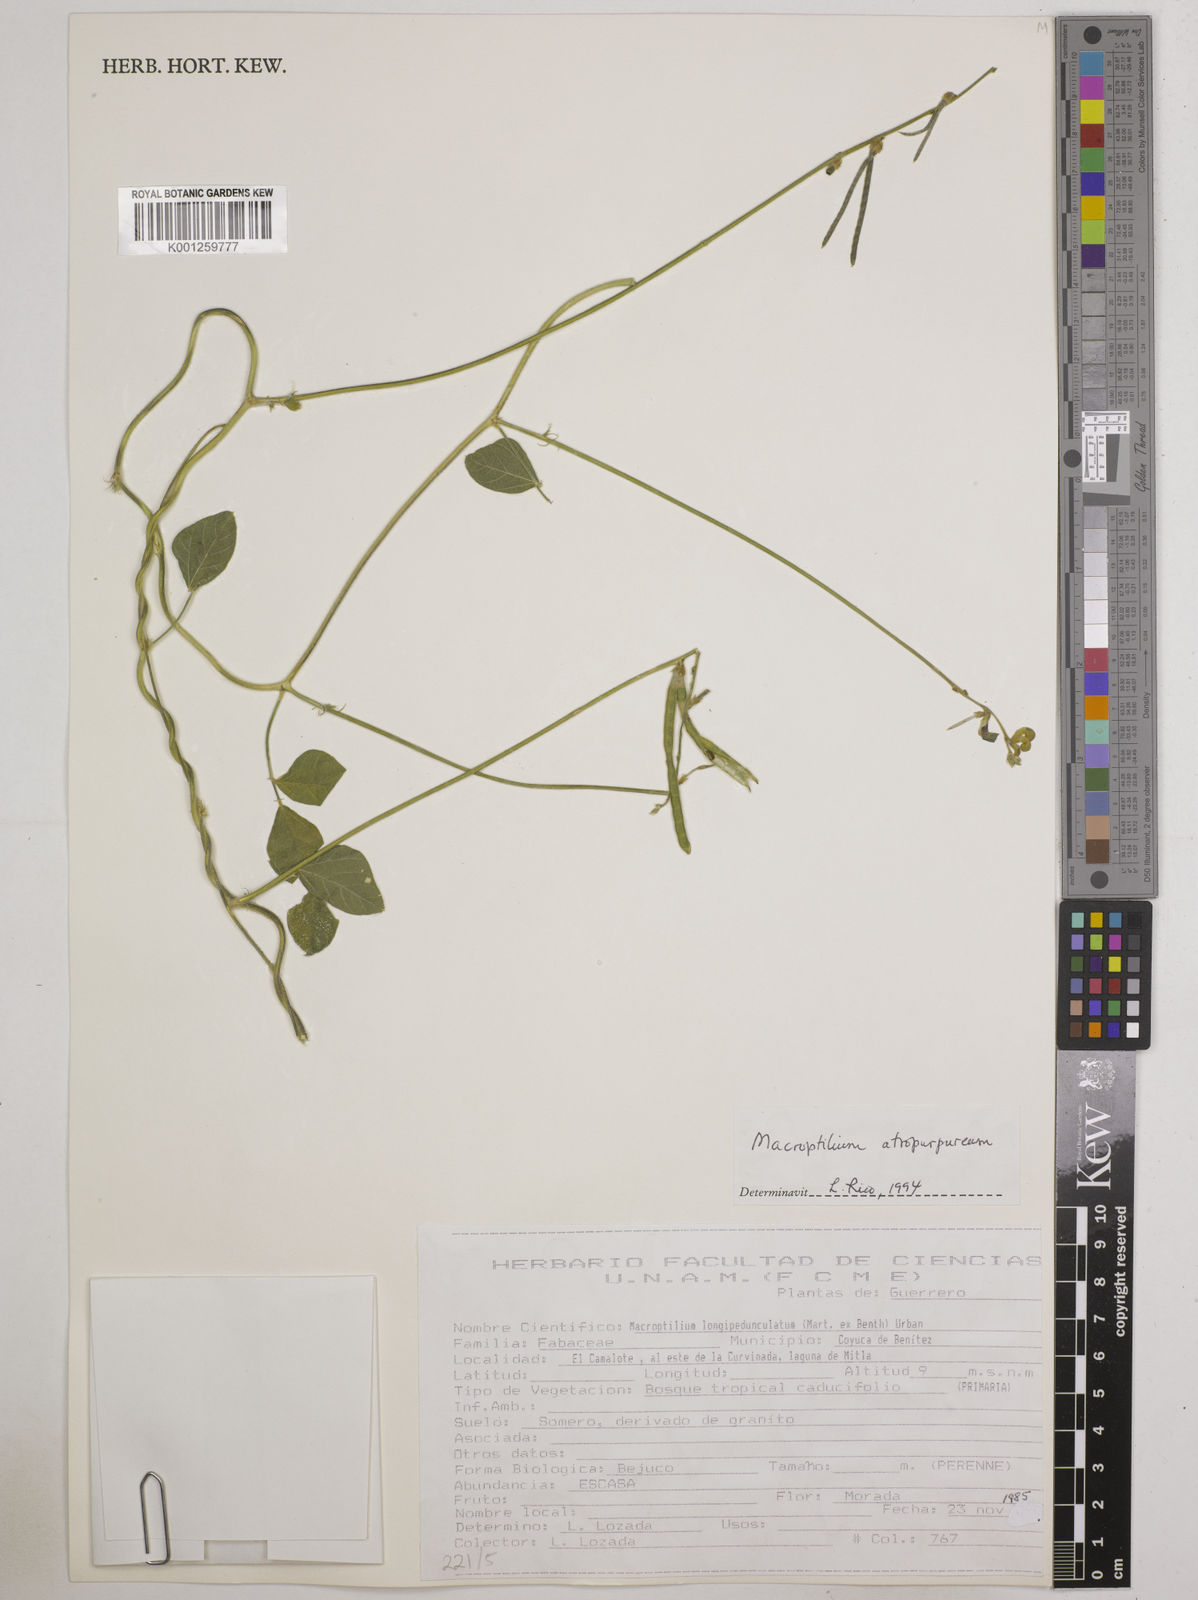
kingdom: Plantae
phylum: Tracheophyta
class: Magnoliopsida
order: Fabales
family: Fabaceae
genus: Macroptilium
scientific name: Macroptilium atropurpureum
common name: Purple bushbean
